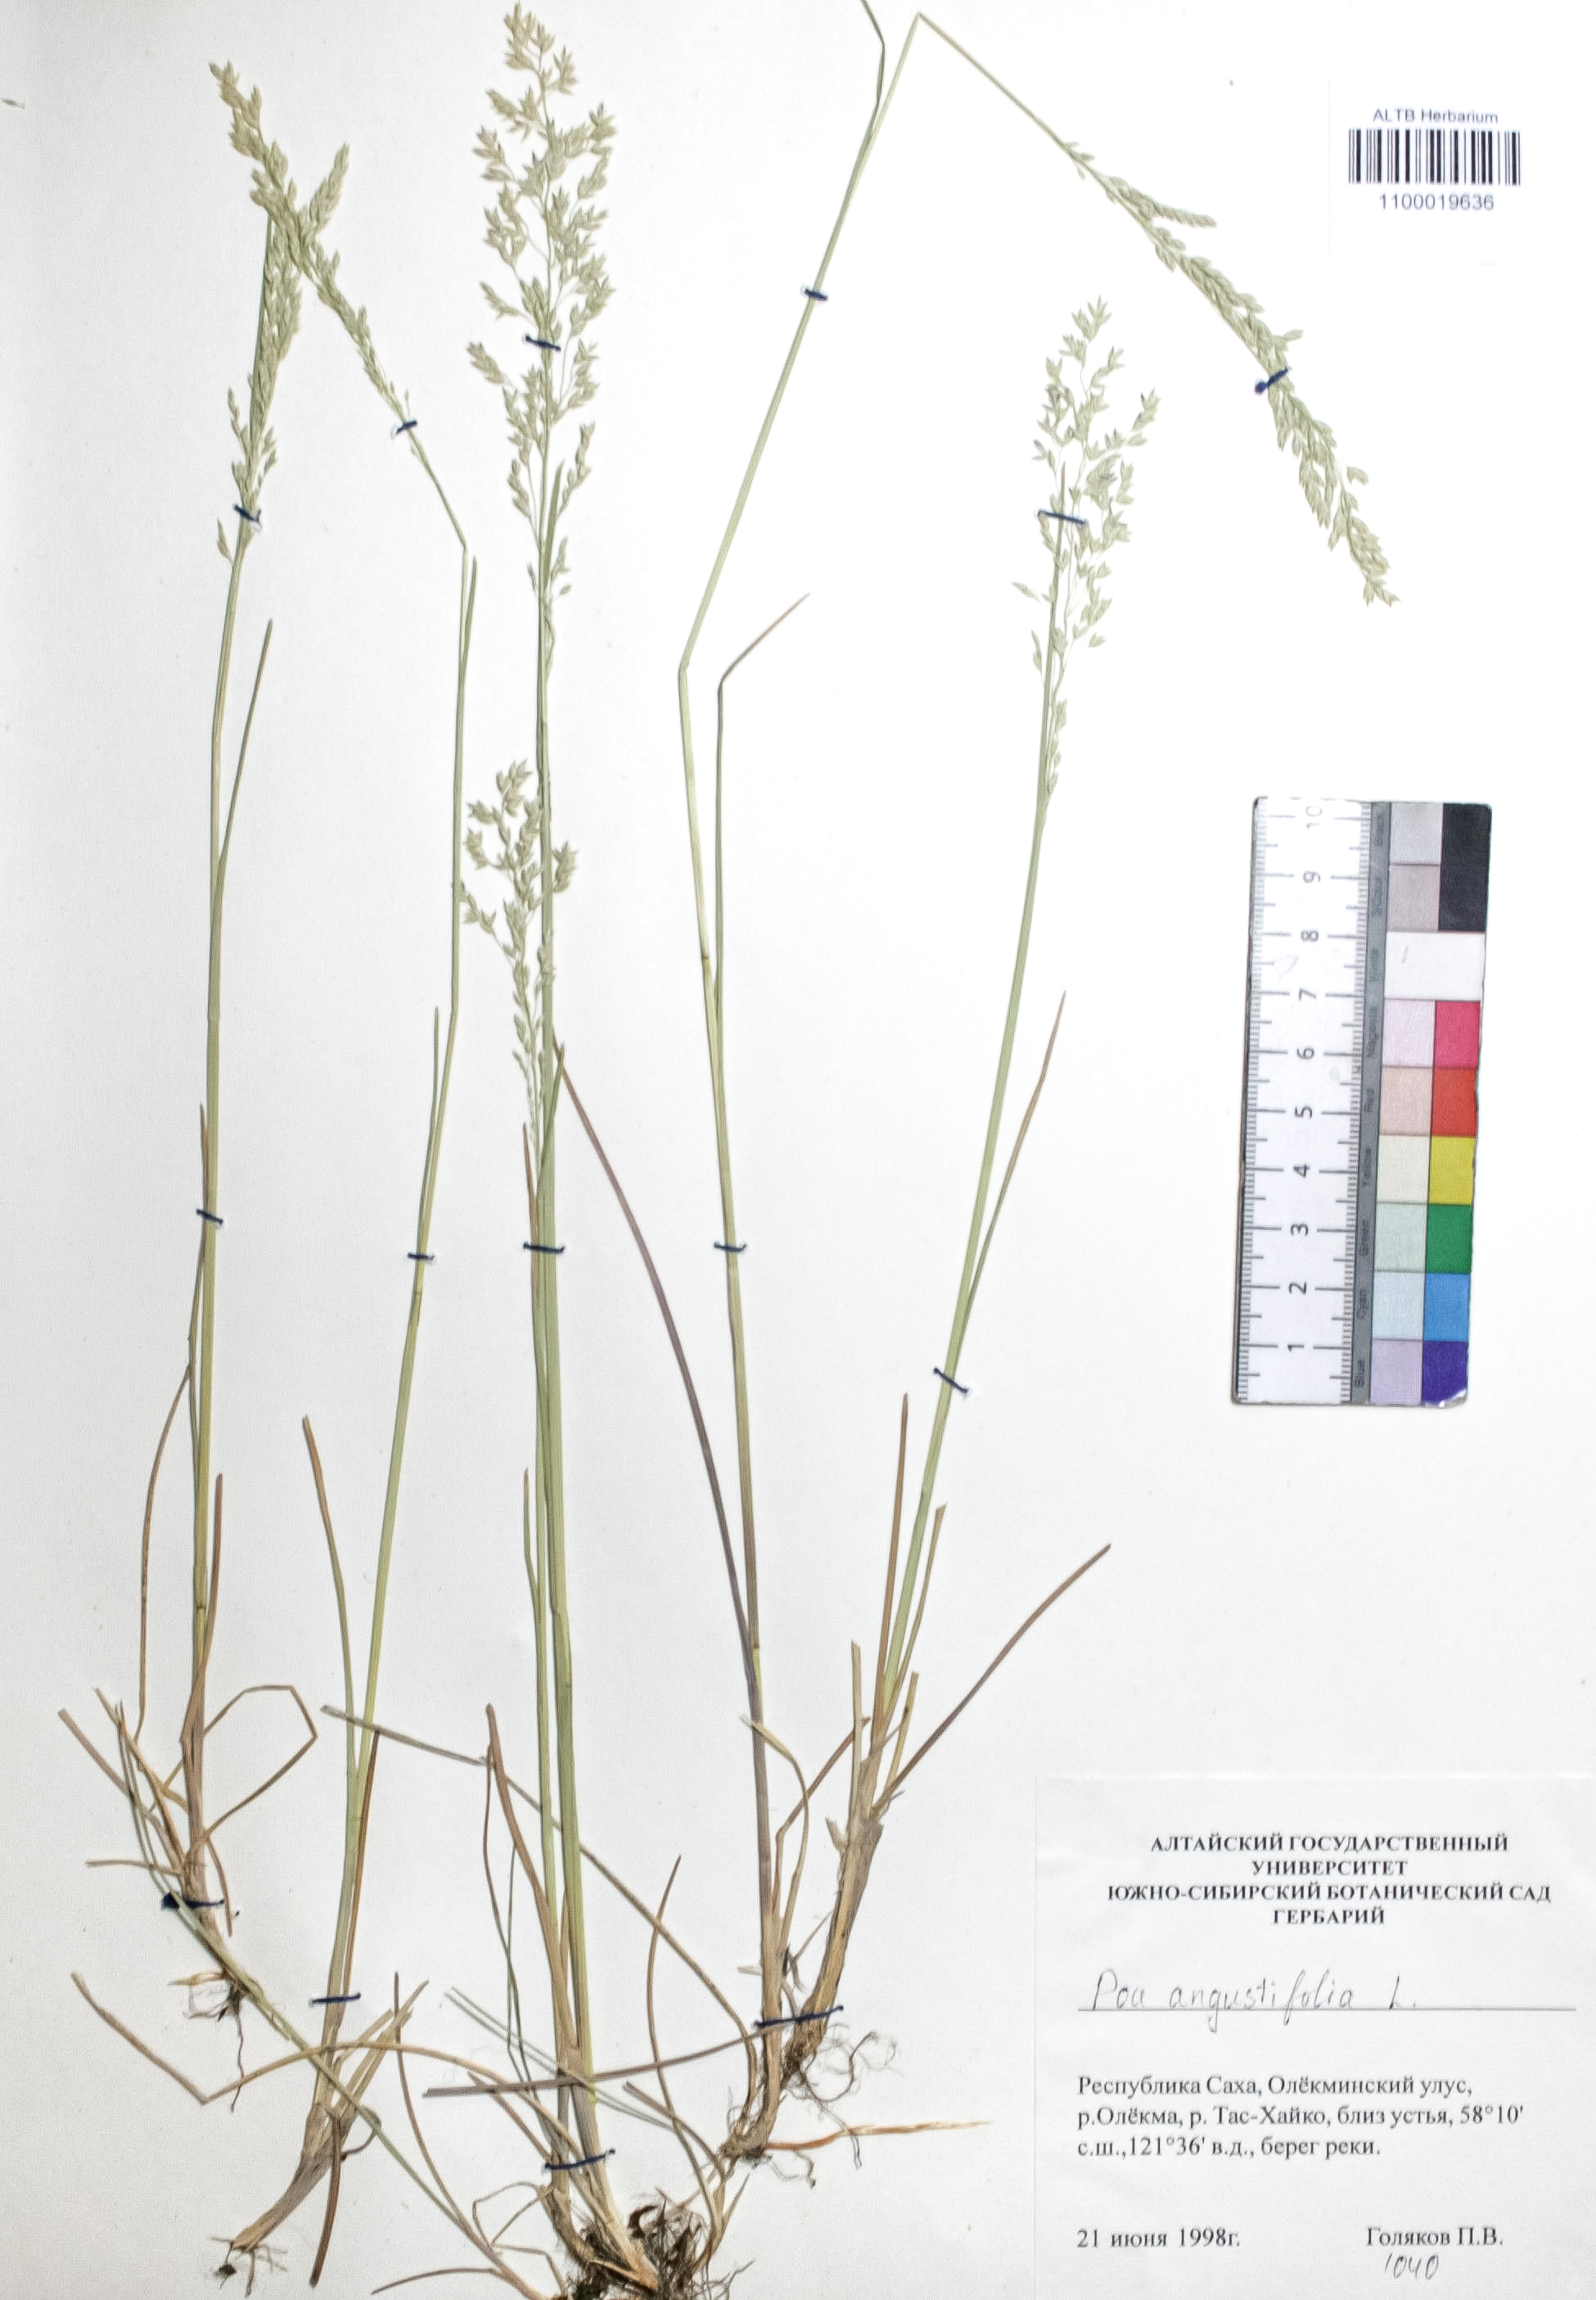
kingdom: Plantae
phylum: Tracheophyta
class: Liliopsida
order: Poales
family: Poaceae
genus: Poa
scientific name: Poa angustifolia
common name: Narrow-leaved meadow-grass
